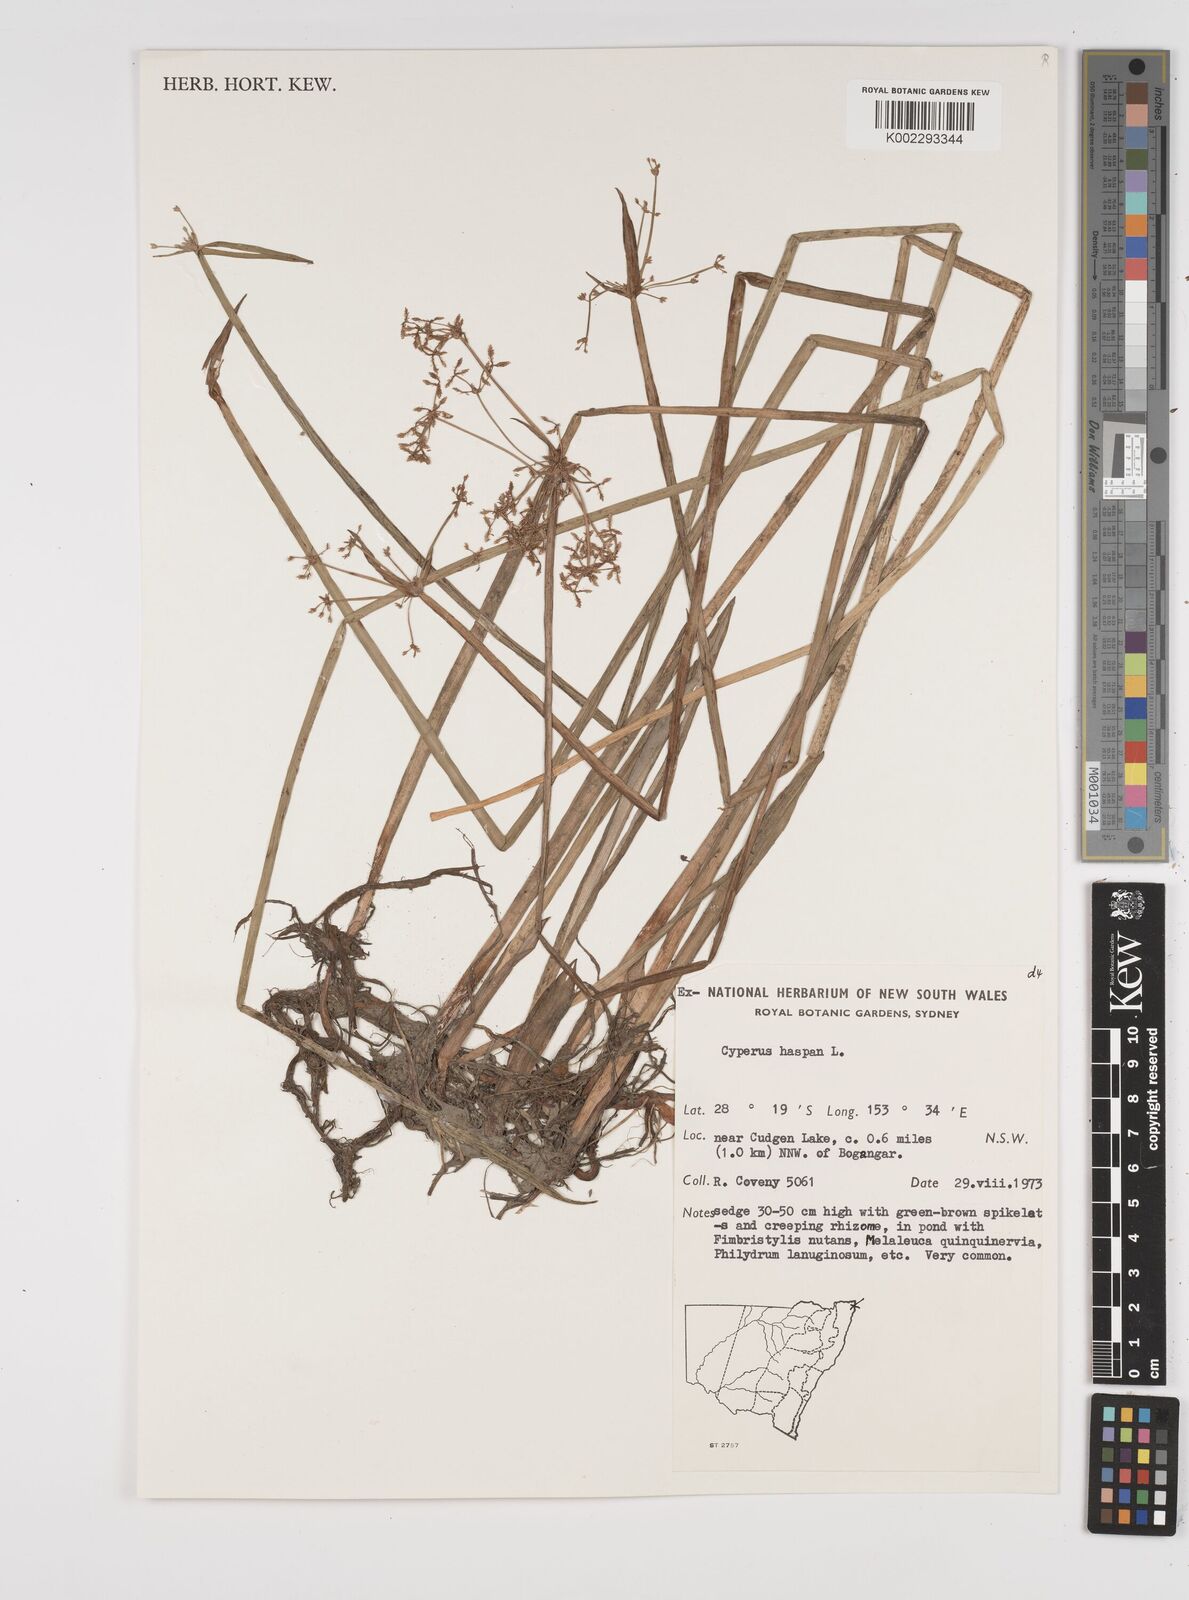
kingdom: Plantae
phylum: Tracheophyta
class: Liliopsida
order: Poales
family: Cyperaceae
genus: Cyperus
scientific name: Cyperus haspan
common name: Haspan flatsedge
